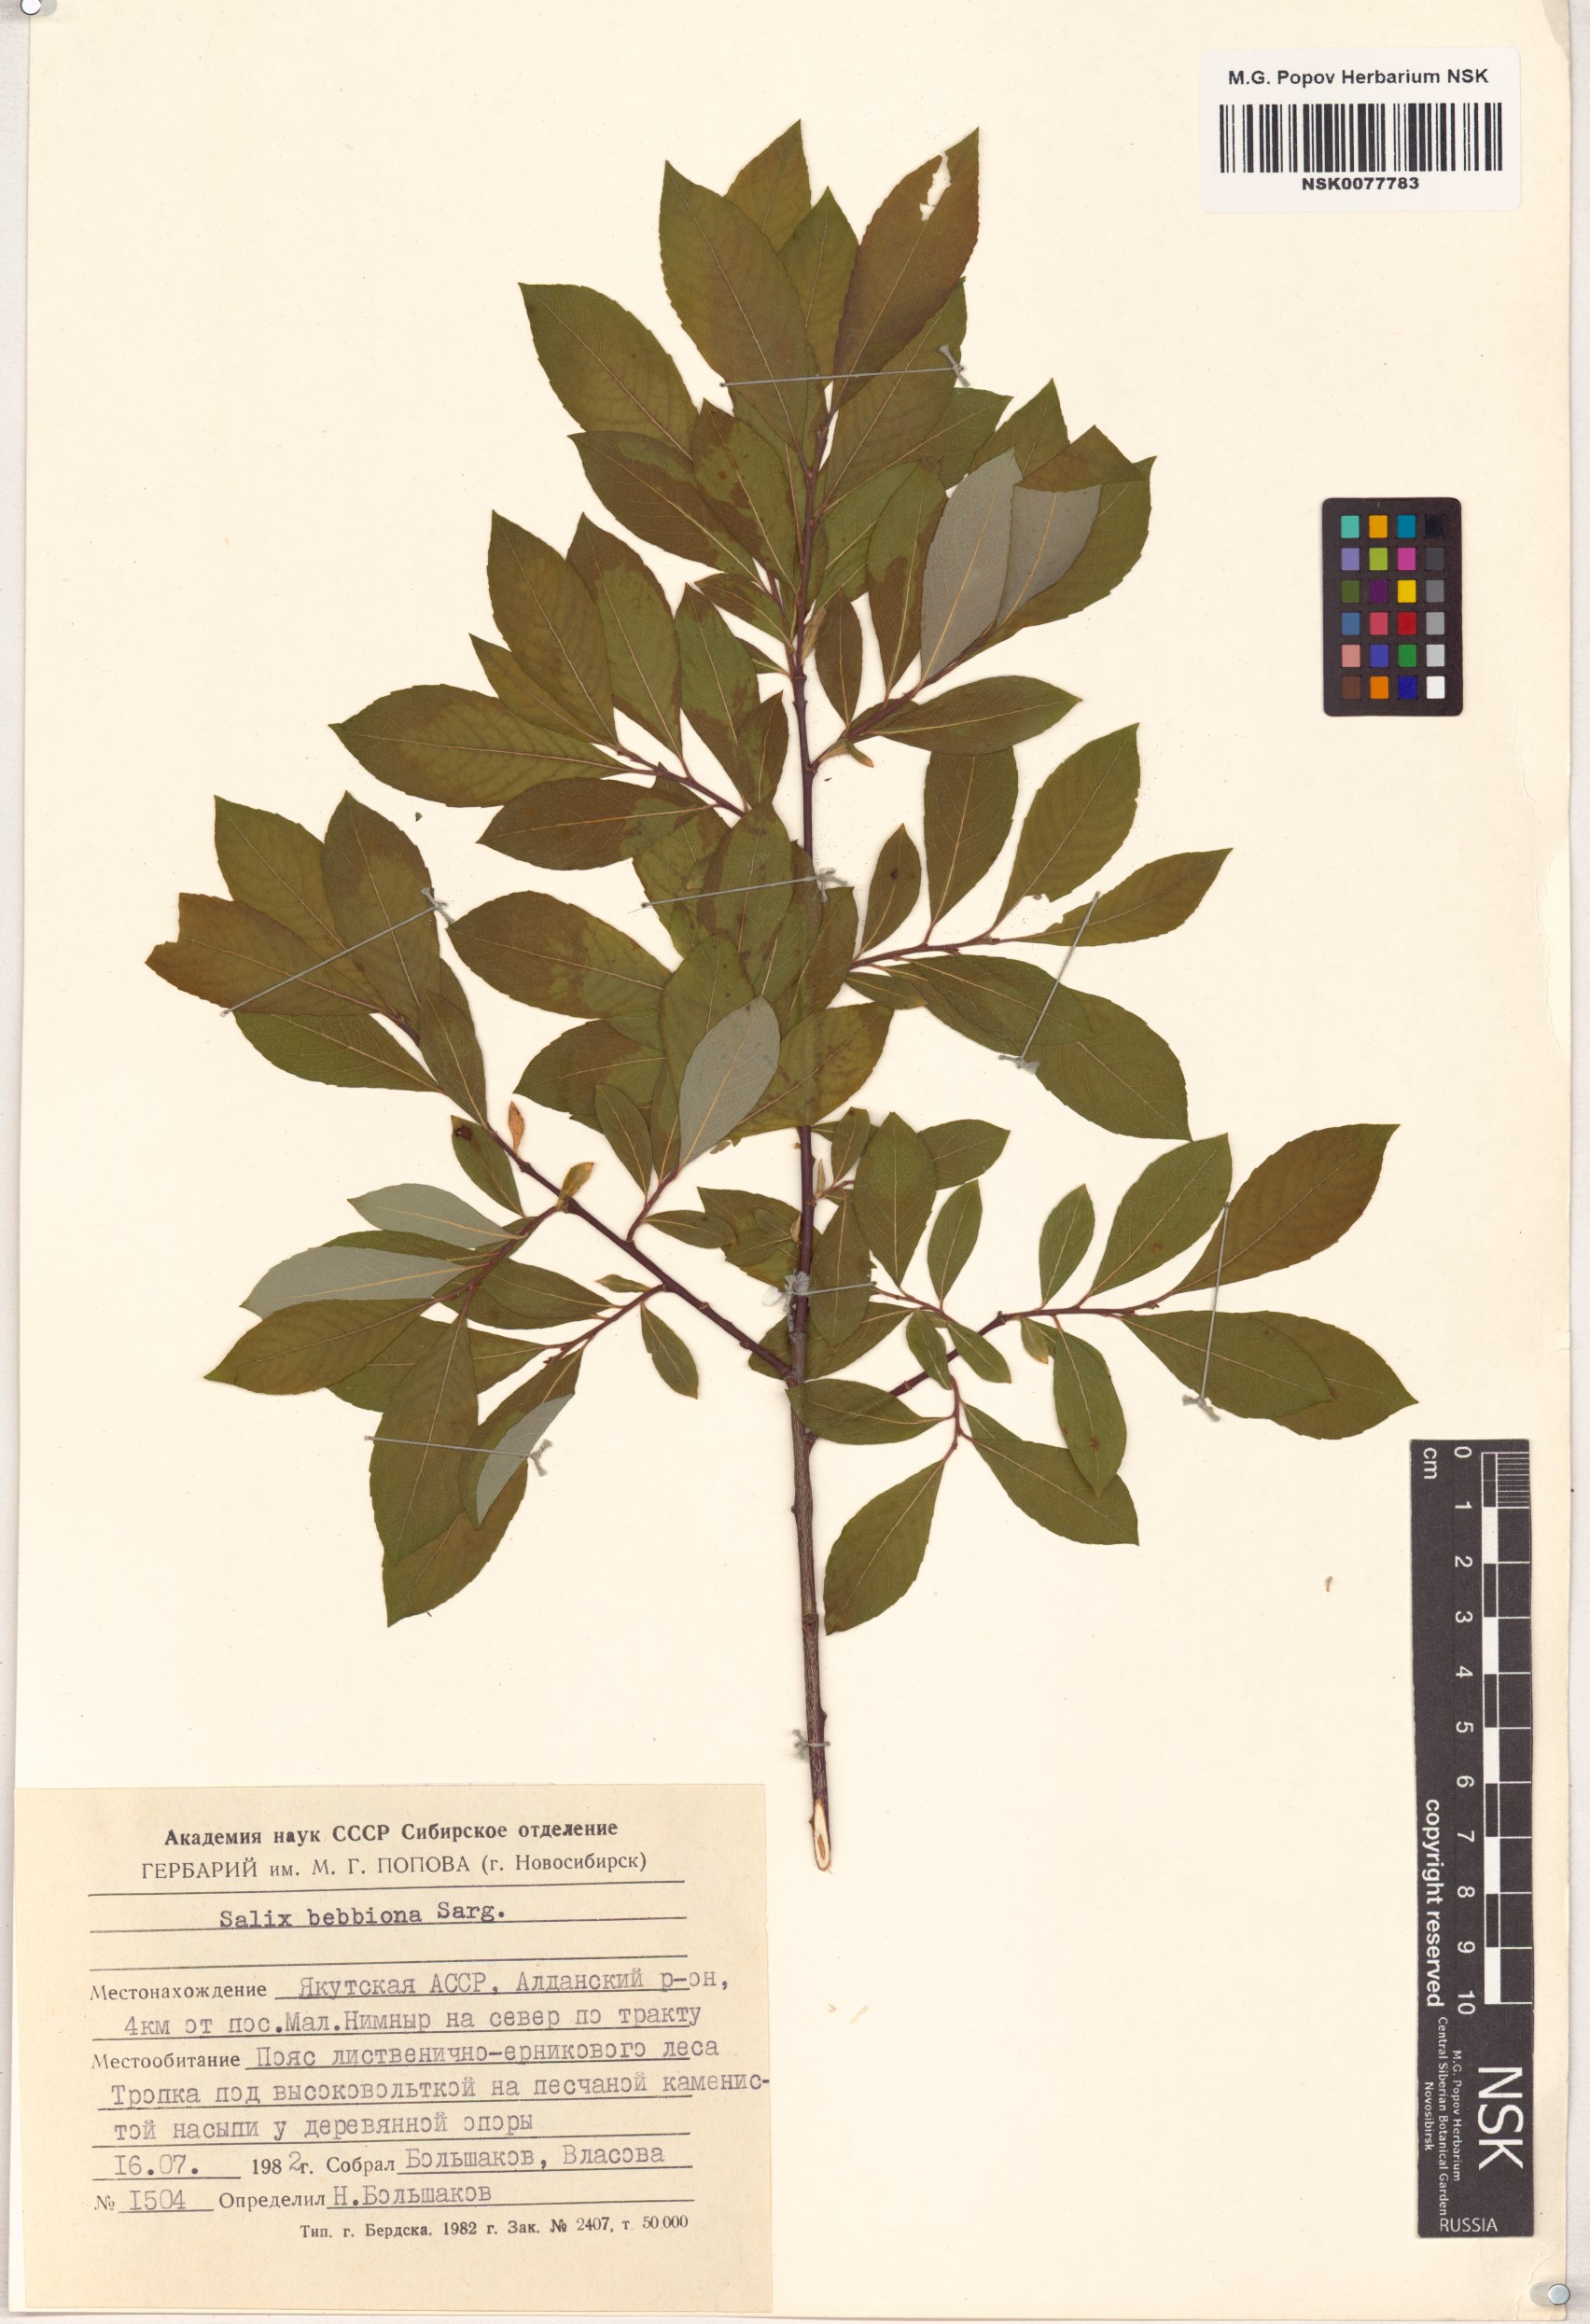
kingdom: Plantae
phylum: Tracheophyta
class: Magnoliopsida
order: Malpighiales
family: Salicaceae
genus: Salix
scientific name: Salix bebbiana
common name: Bebb's willow
